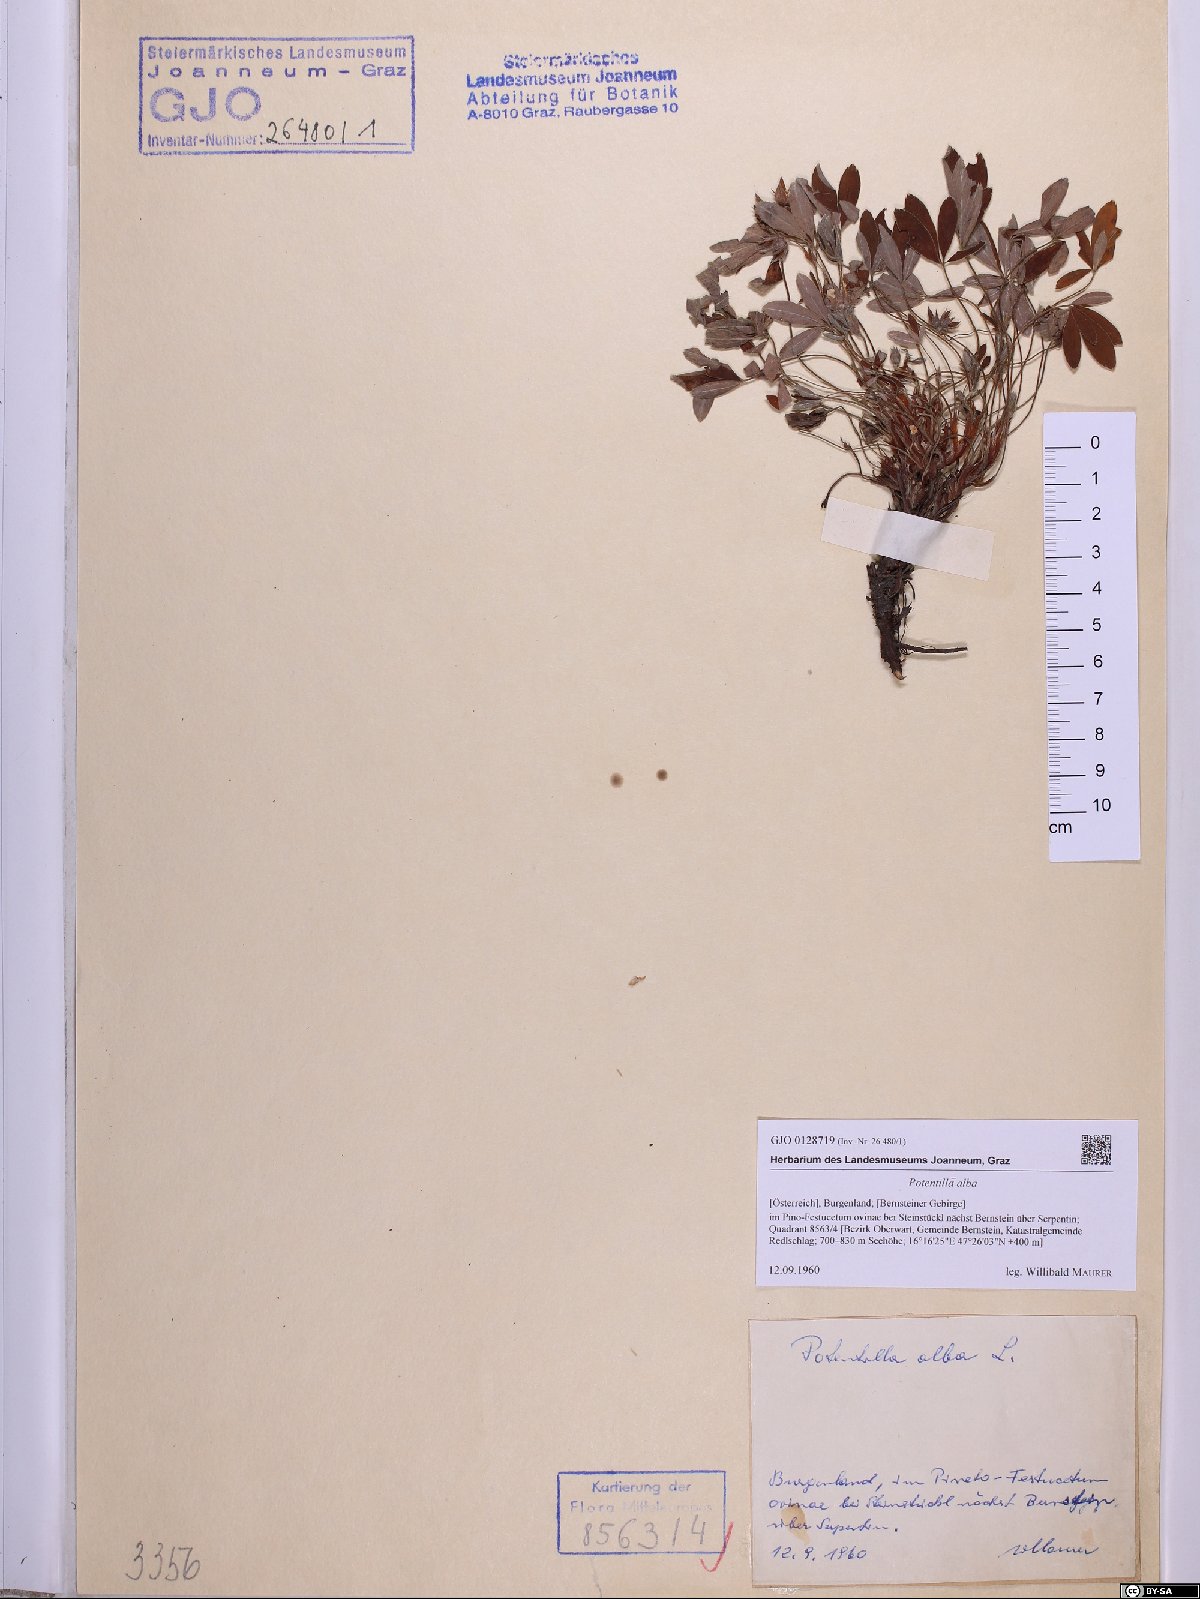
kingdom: Plantae
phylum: Tracheophyta
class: Magnoliopsida
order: Rosales
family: Rosaceae
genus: Potentilla
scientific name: Potentilla alba
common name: White cinquefoil
